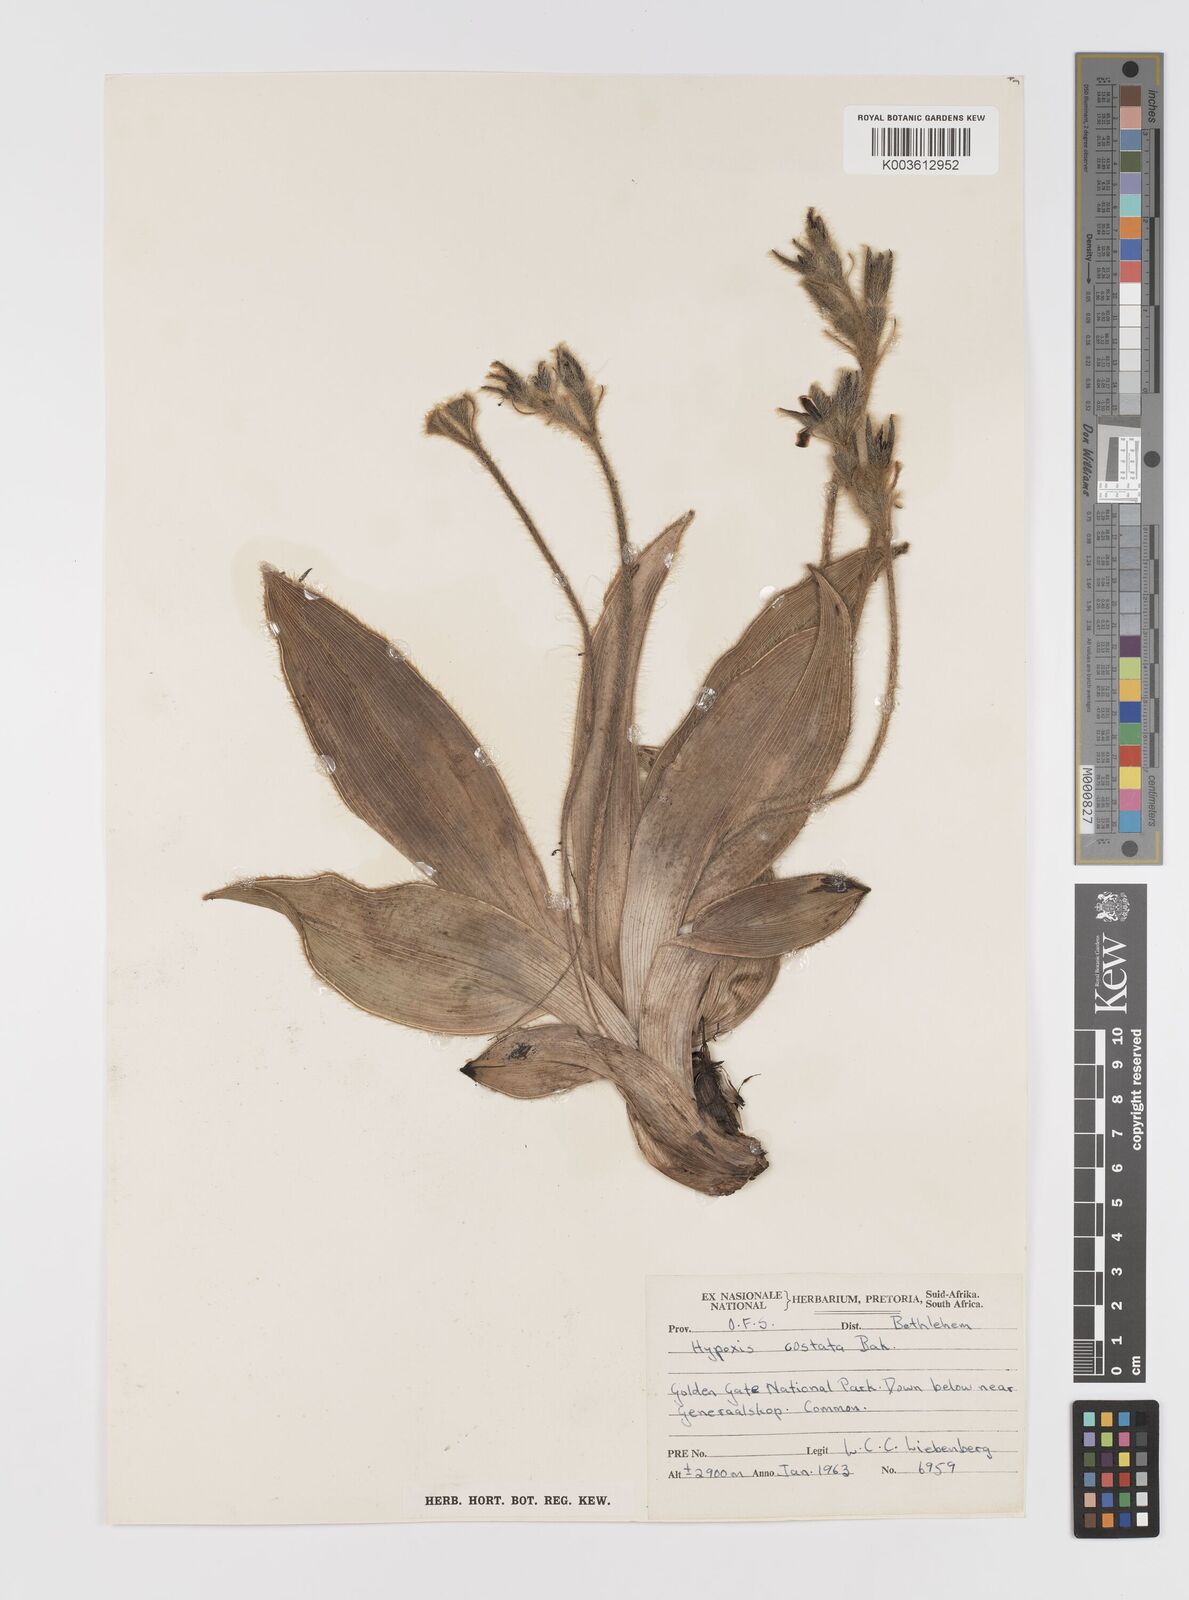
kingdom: Plantae
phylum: Tracheophyta
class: Liliopsida
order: Asparagales
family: Hypoxidaceae
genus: Hypoxis
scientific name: Hypoxis costata
